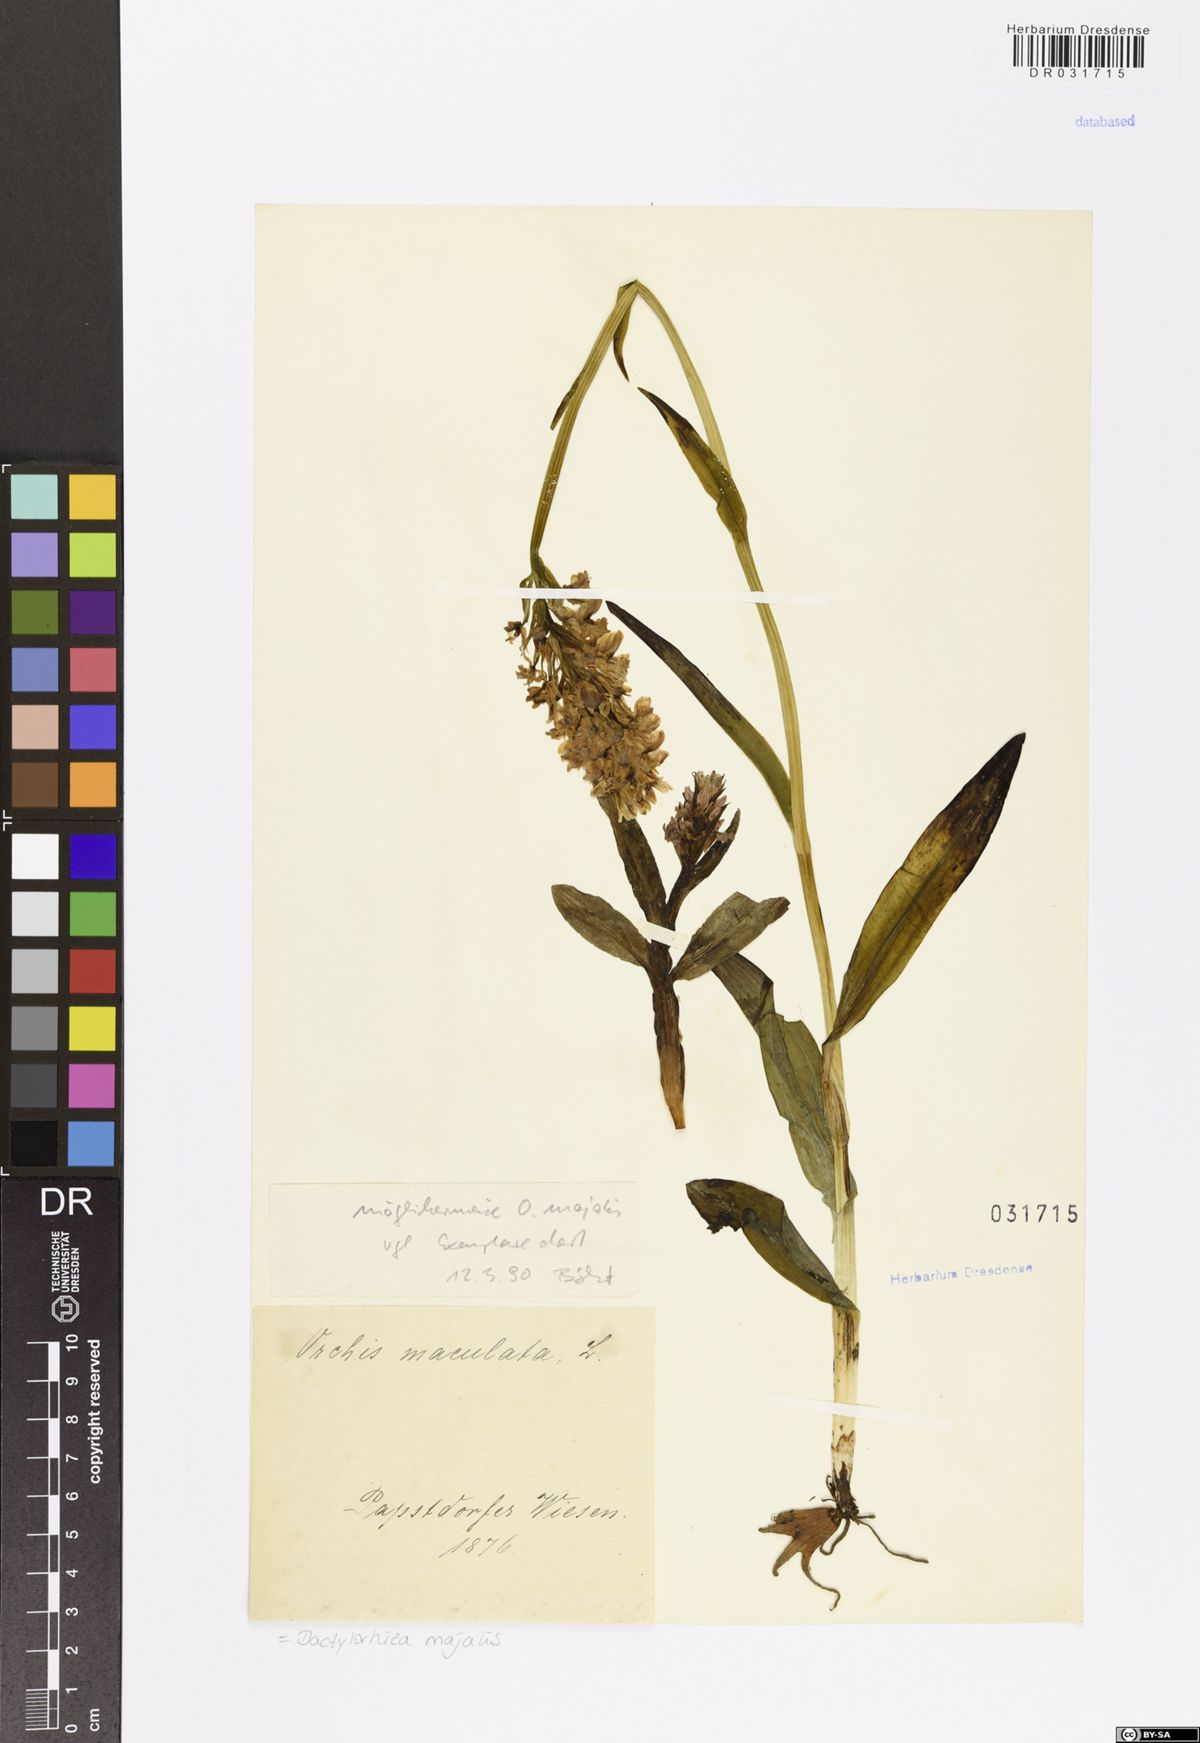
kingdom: Plantae
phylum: Tracheophyta
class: Liliopsida
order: Asparagales
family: Orchidaceae
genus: Dactylorhiza
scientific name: Dactylorhiza majalis
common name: Marsh orchid
